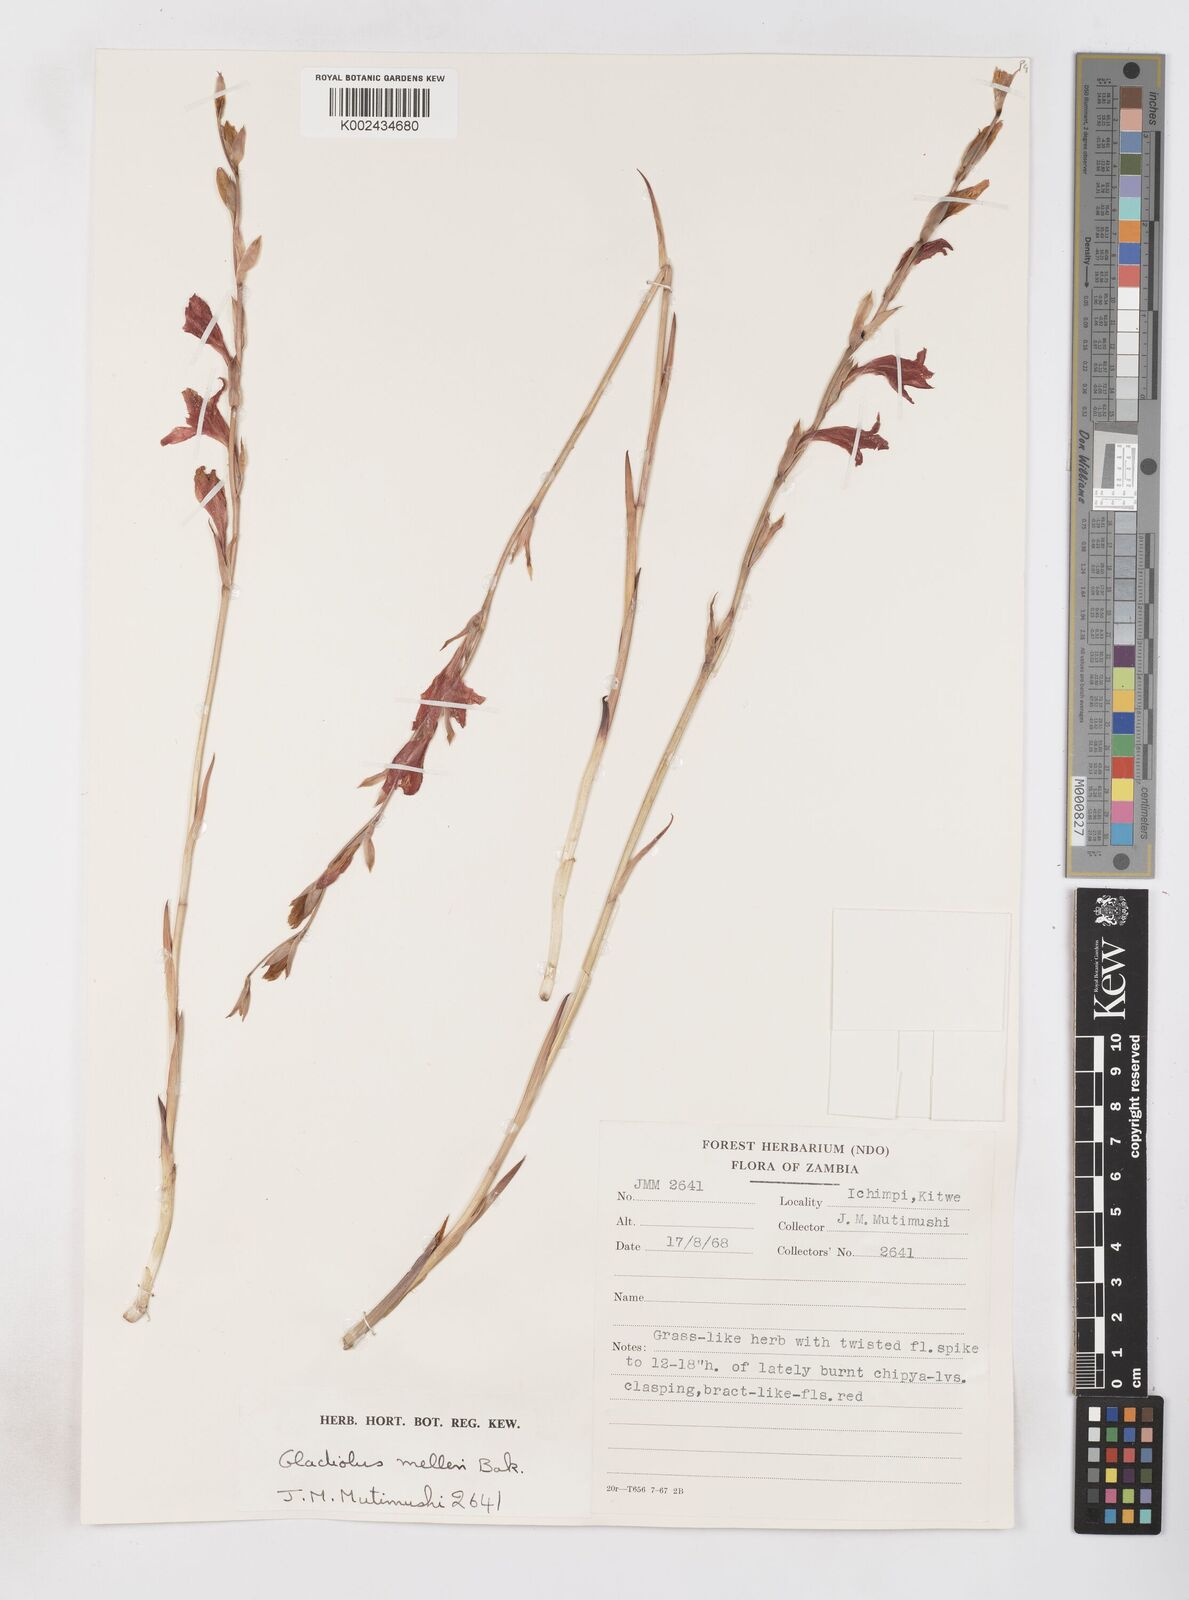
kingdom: Plantae
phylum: Tracheophyta
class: Liliopsida
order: Asparagales
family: Iridaceae
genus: Gladiolus
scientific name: Gladiolus melleri
